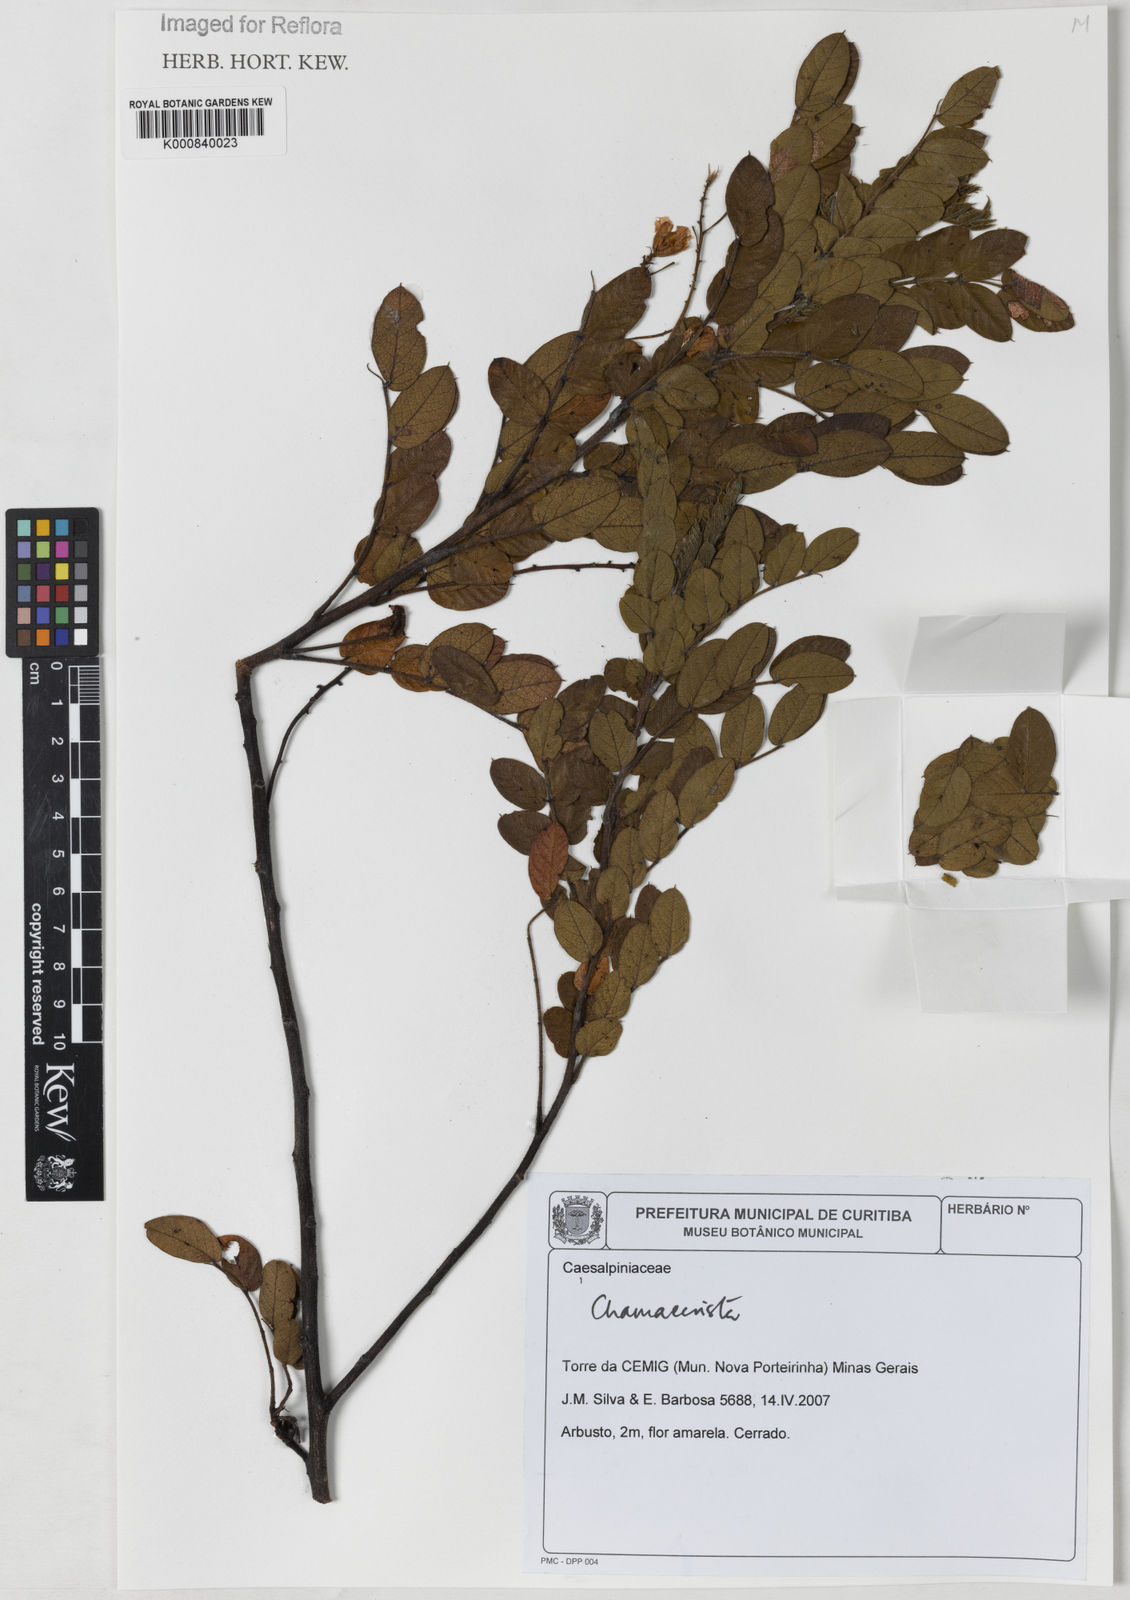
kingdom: Plantae
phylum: Tracheophyta
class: Magnoliopsida
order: Fabales
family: Fabaceae
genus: Chamaecrista
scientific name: Chamaecrista
